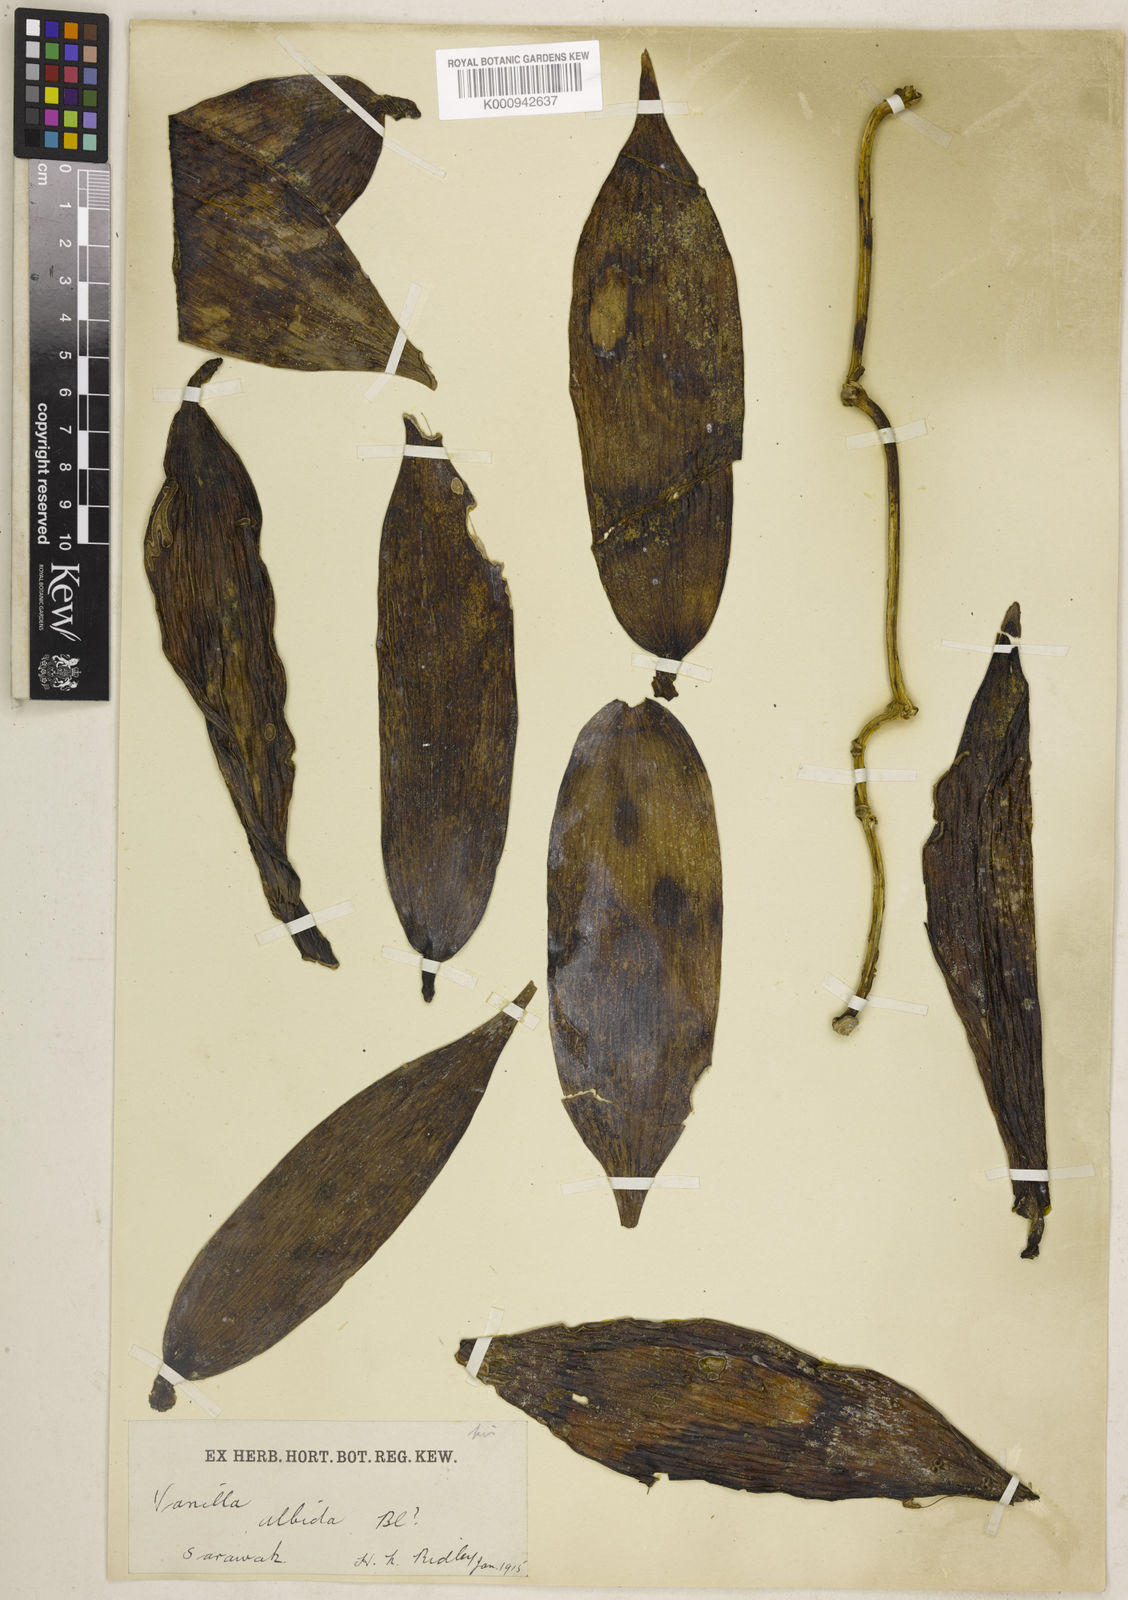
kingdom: Plantae
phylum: Tracheophyta
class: Liliopsida
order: Asparagales
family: Orchidaceae
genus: Vanilla
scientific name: Vanilla havilandii
